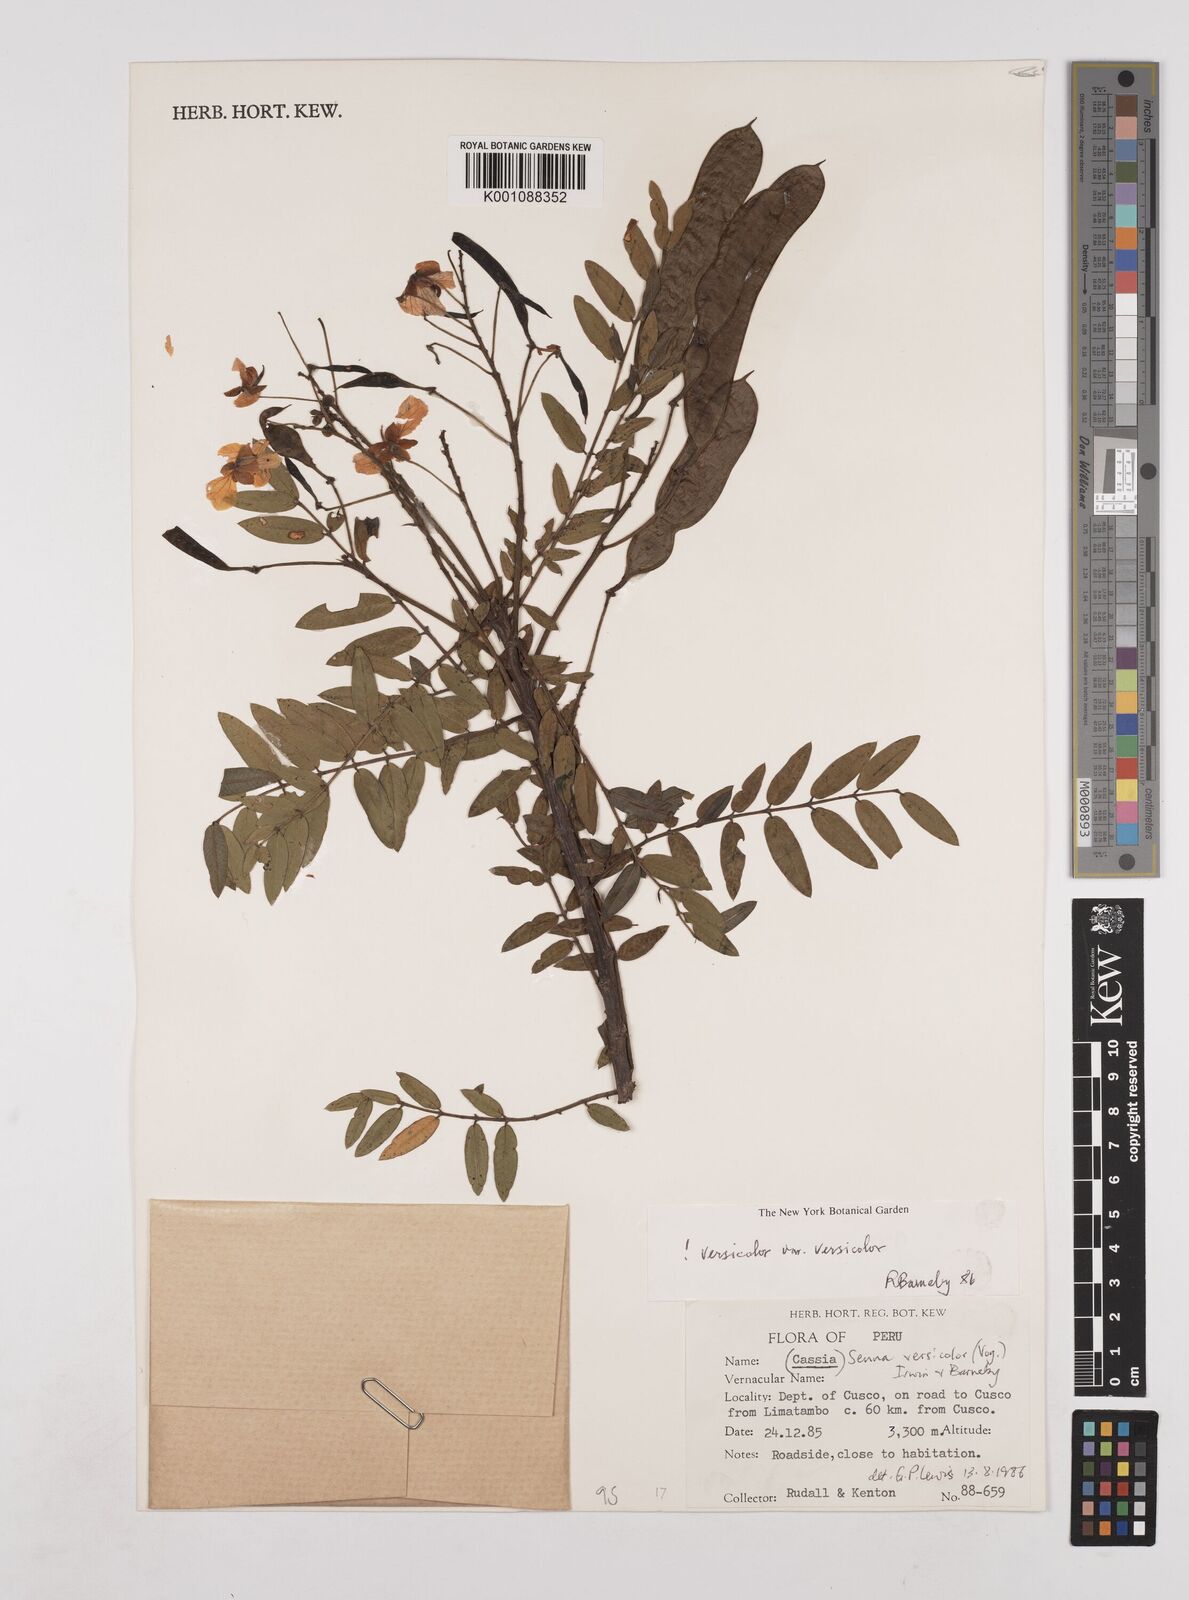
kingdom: Plantae
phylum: Tracheophyta
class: Magnoliopsida
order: Fabales
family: Fabaceae
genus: Senna
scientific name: Senna versicolor
